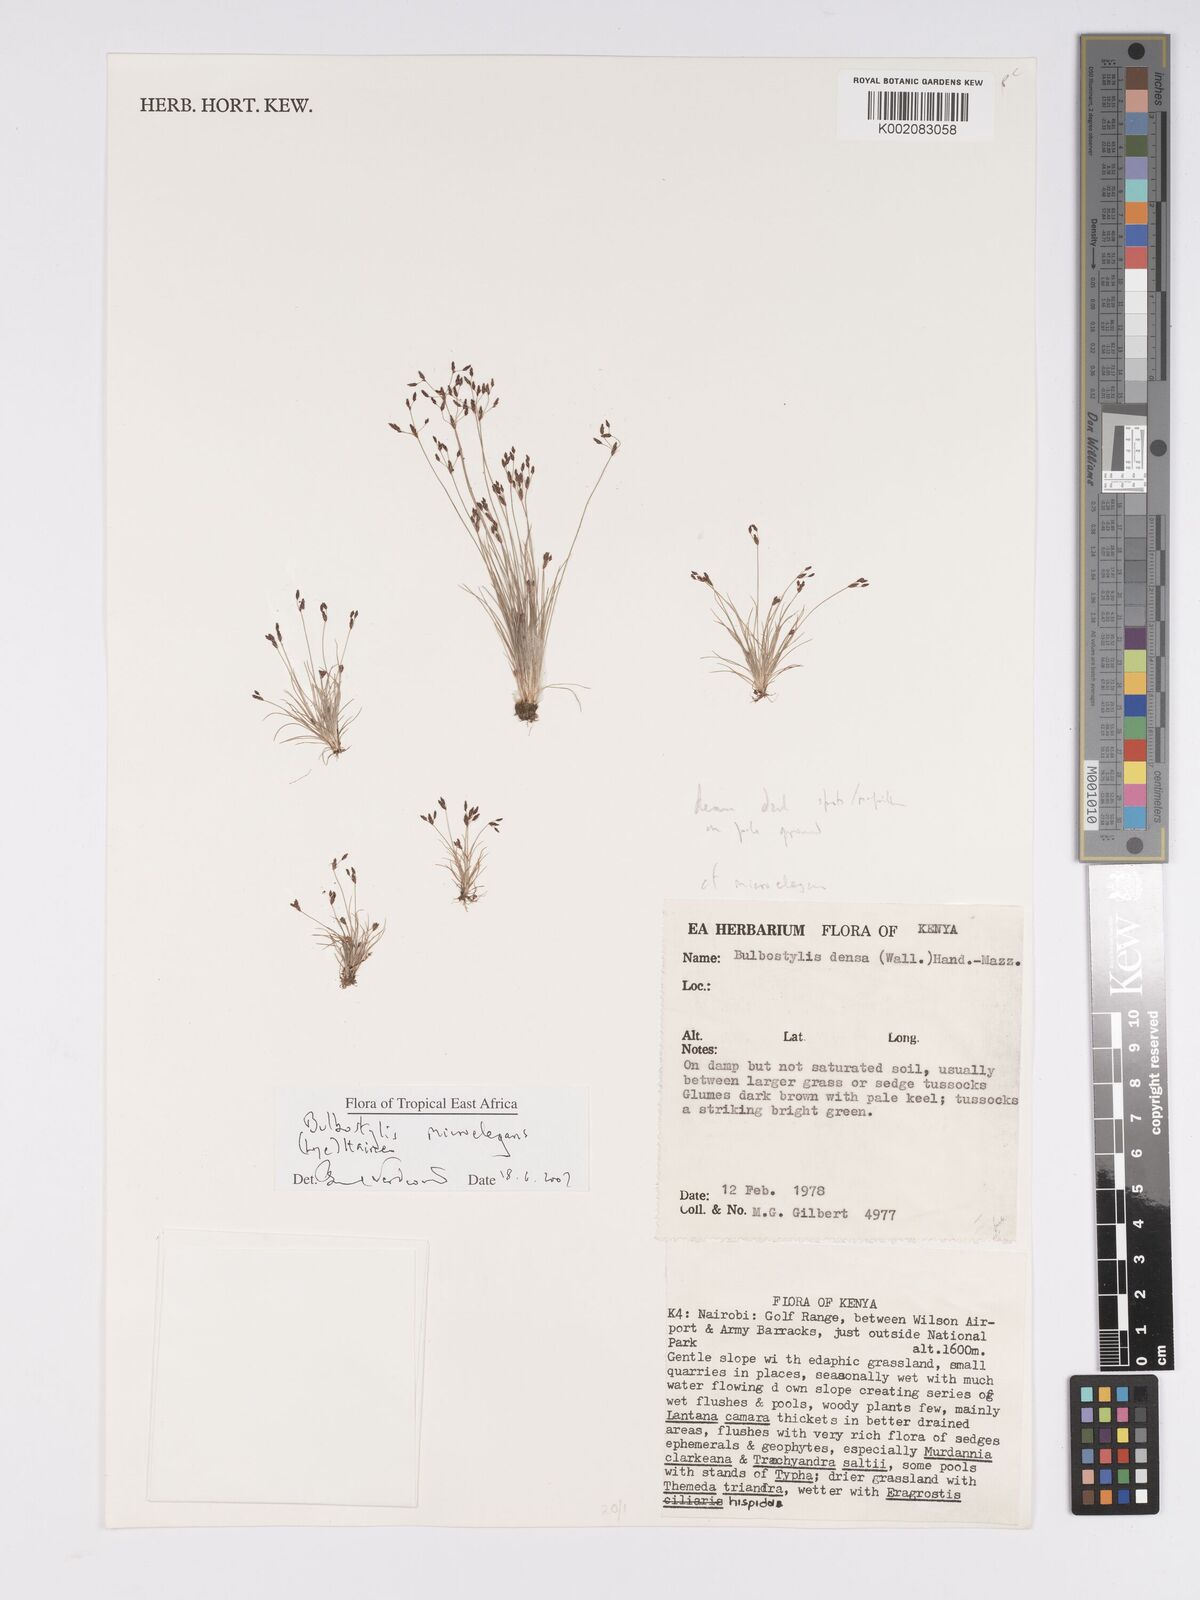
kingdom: Plantae
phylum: Tracheophyta
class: Liliopsida
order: Poales
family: Cyperaceae
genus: Bulbostylis
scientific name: Bulbostylis microelegans
